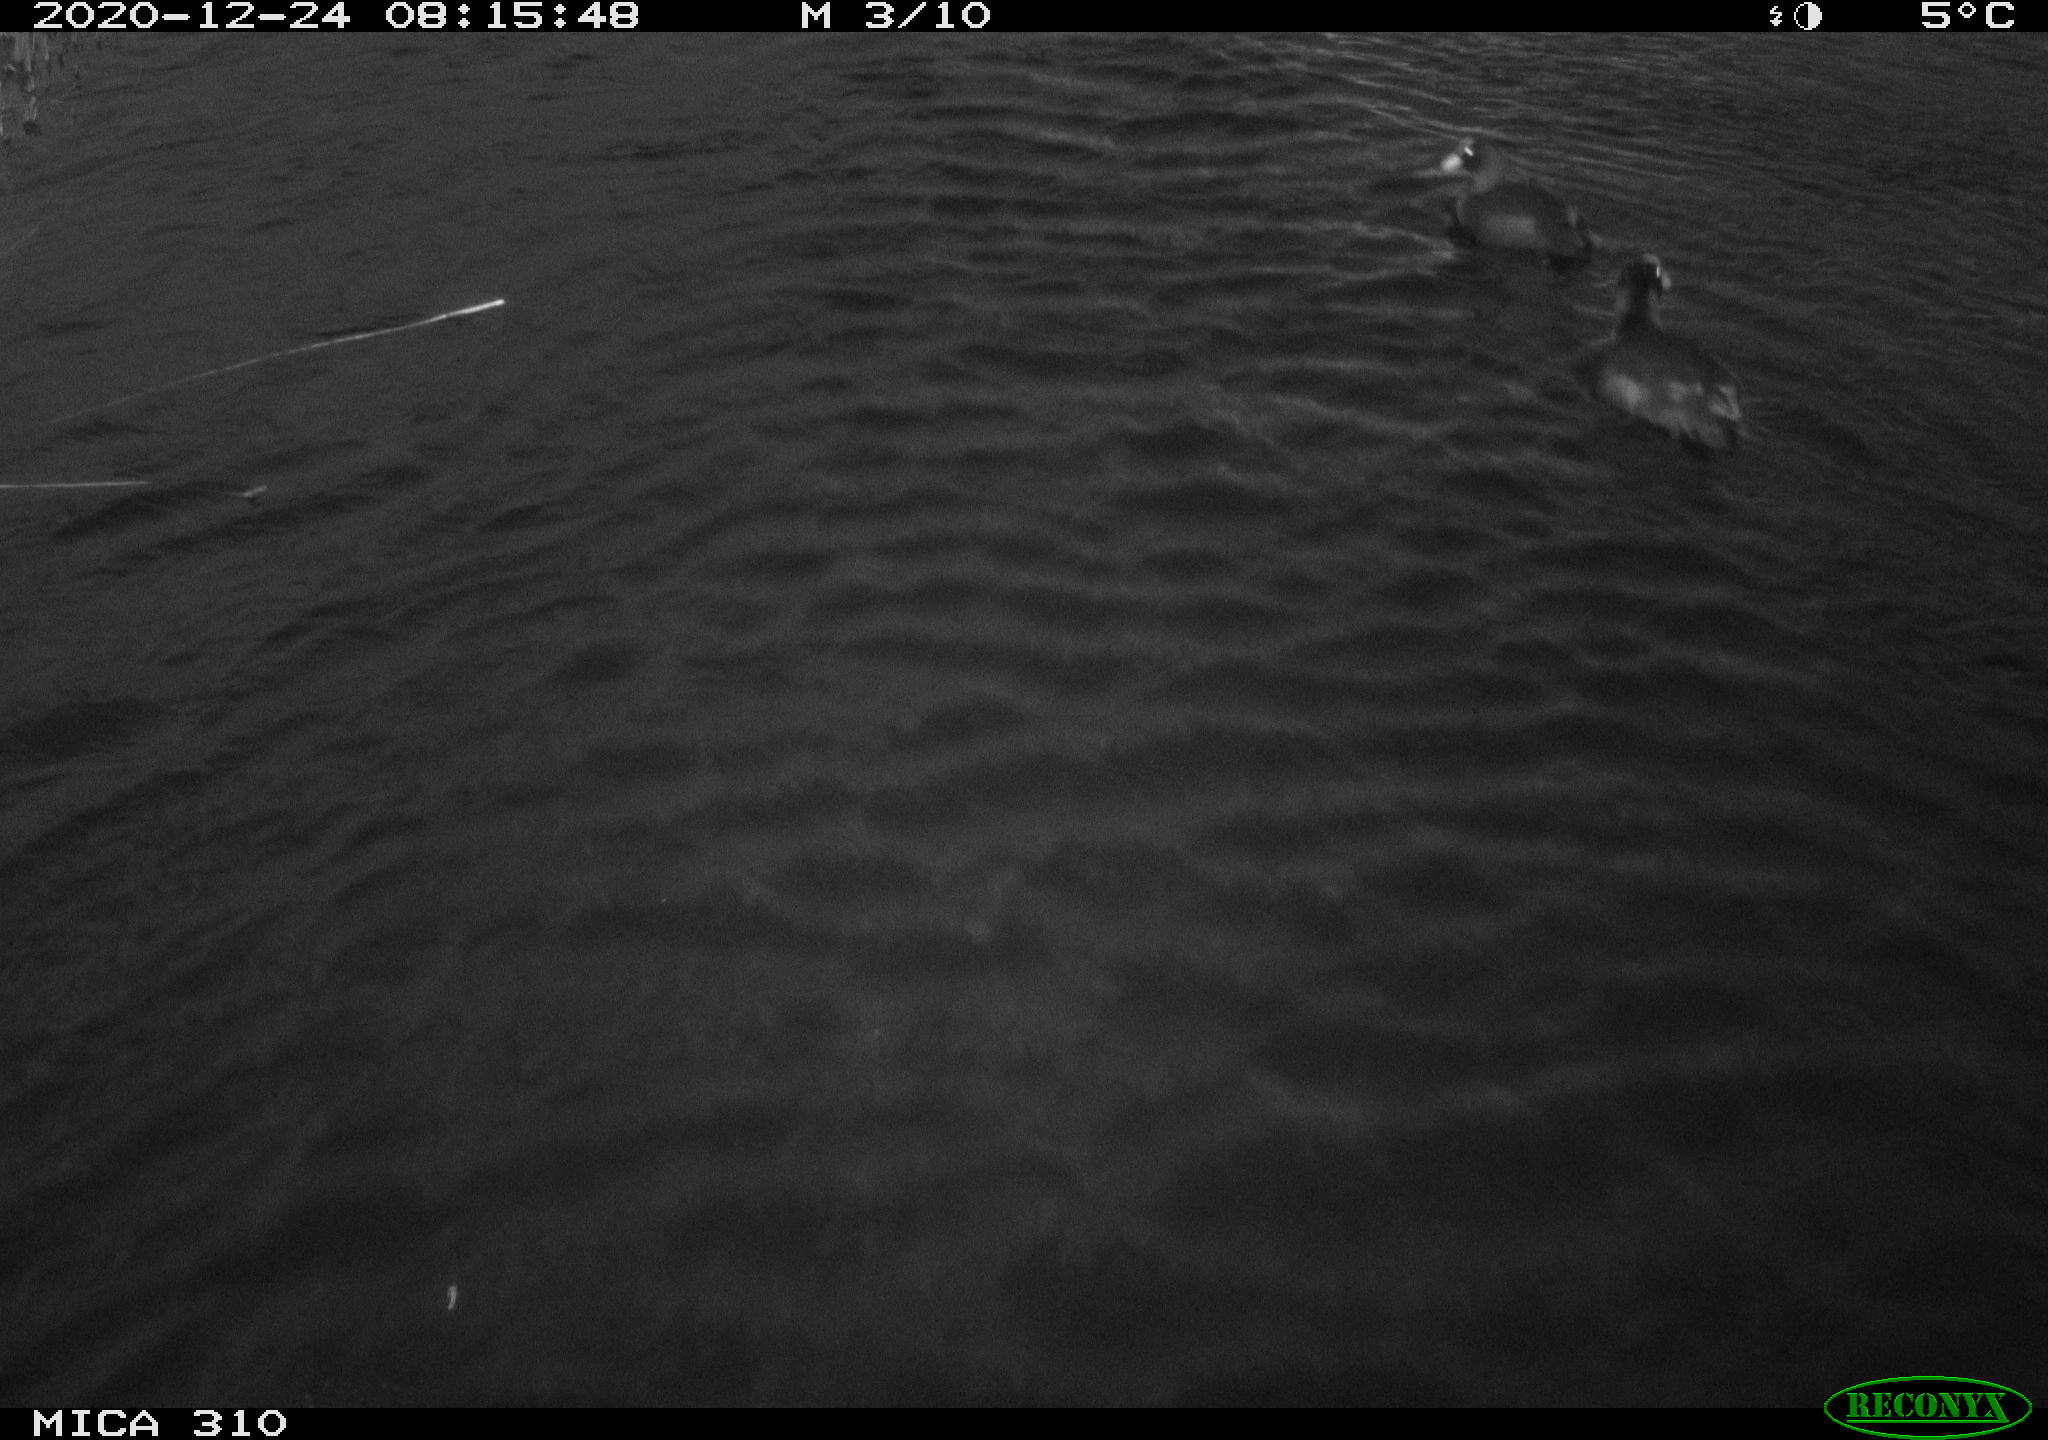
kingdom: Animalia
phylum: Chordata
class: Aves
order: Gruiformes
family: Rallidae
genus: Fulica
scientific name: Fulica atra
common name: Eurasian coot
